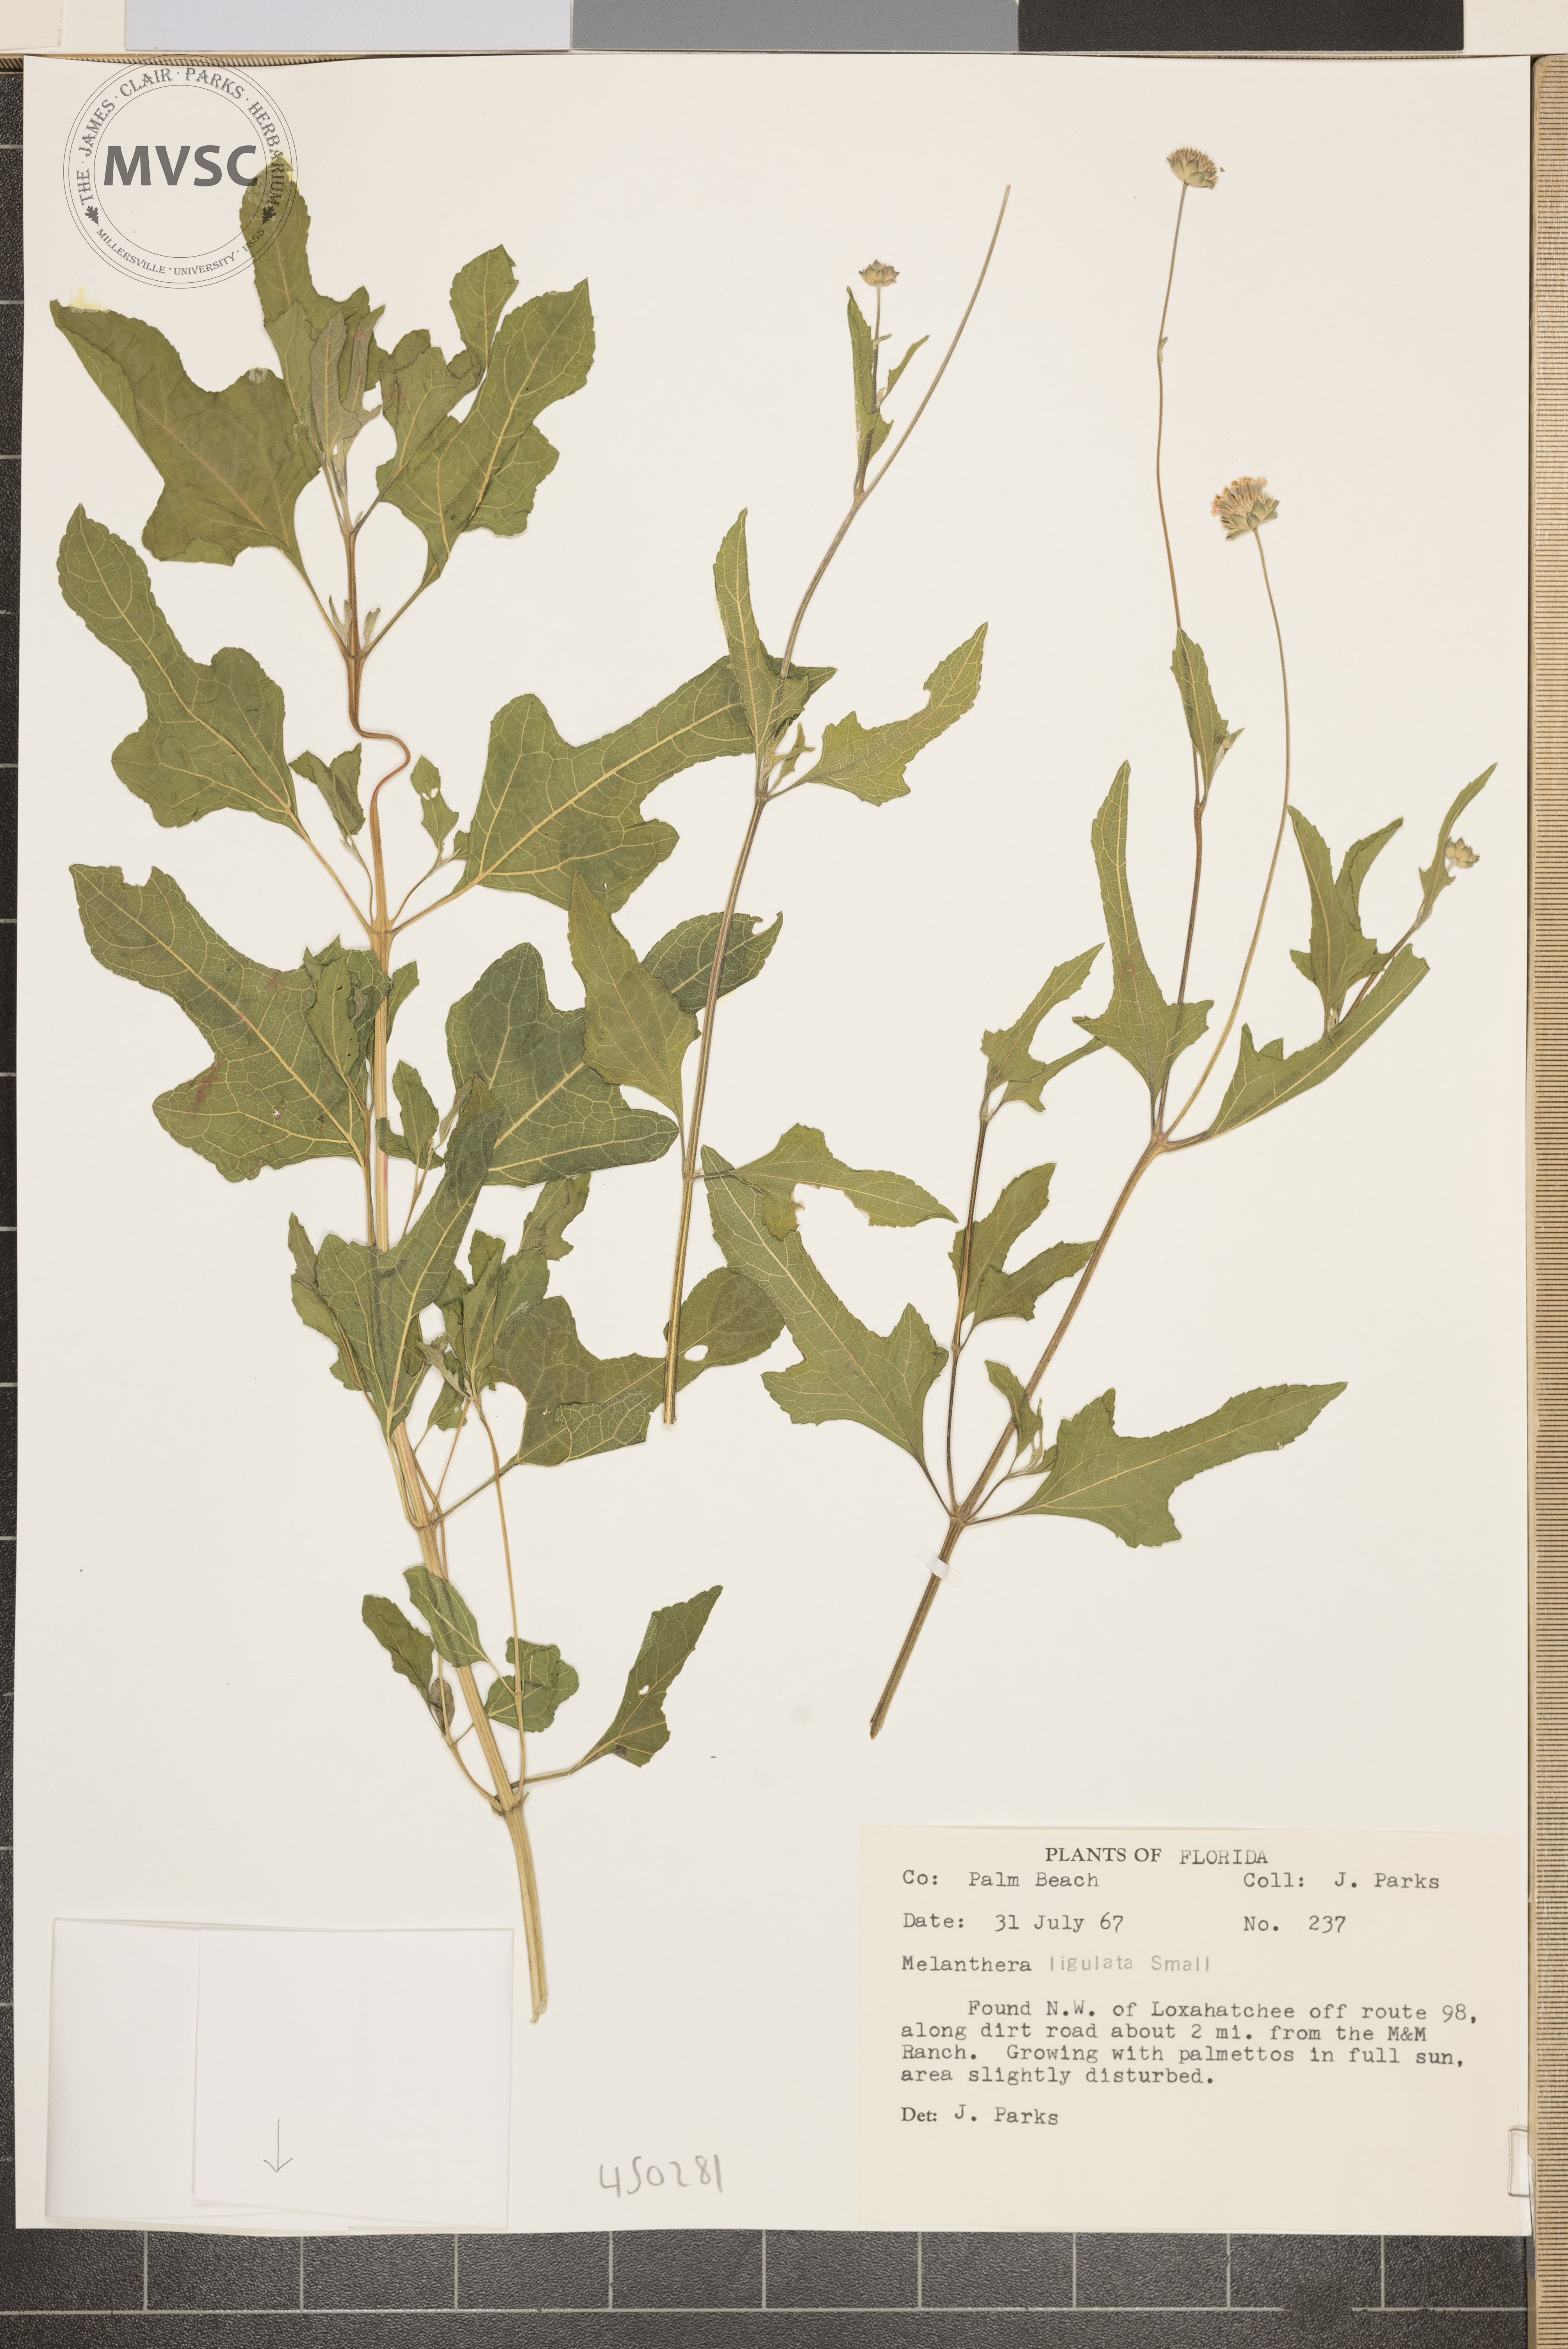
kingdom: Plantae
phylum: Tracheophyta
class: Magnoliopsida
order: Asterales
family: Asteraceae
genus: Melanthera
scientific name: Melanthera nivea
